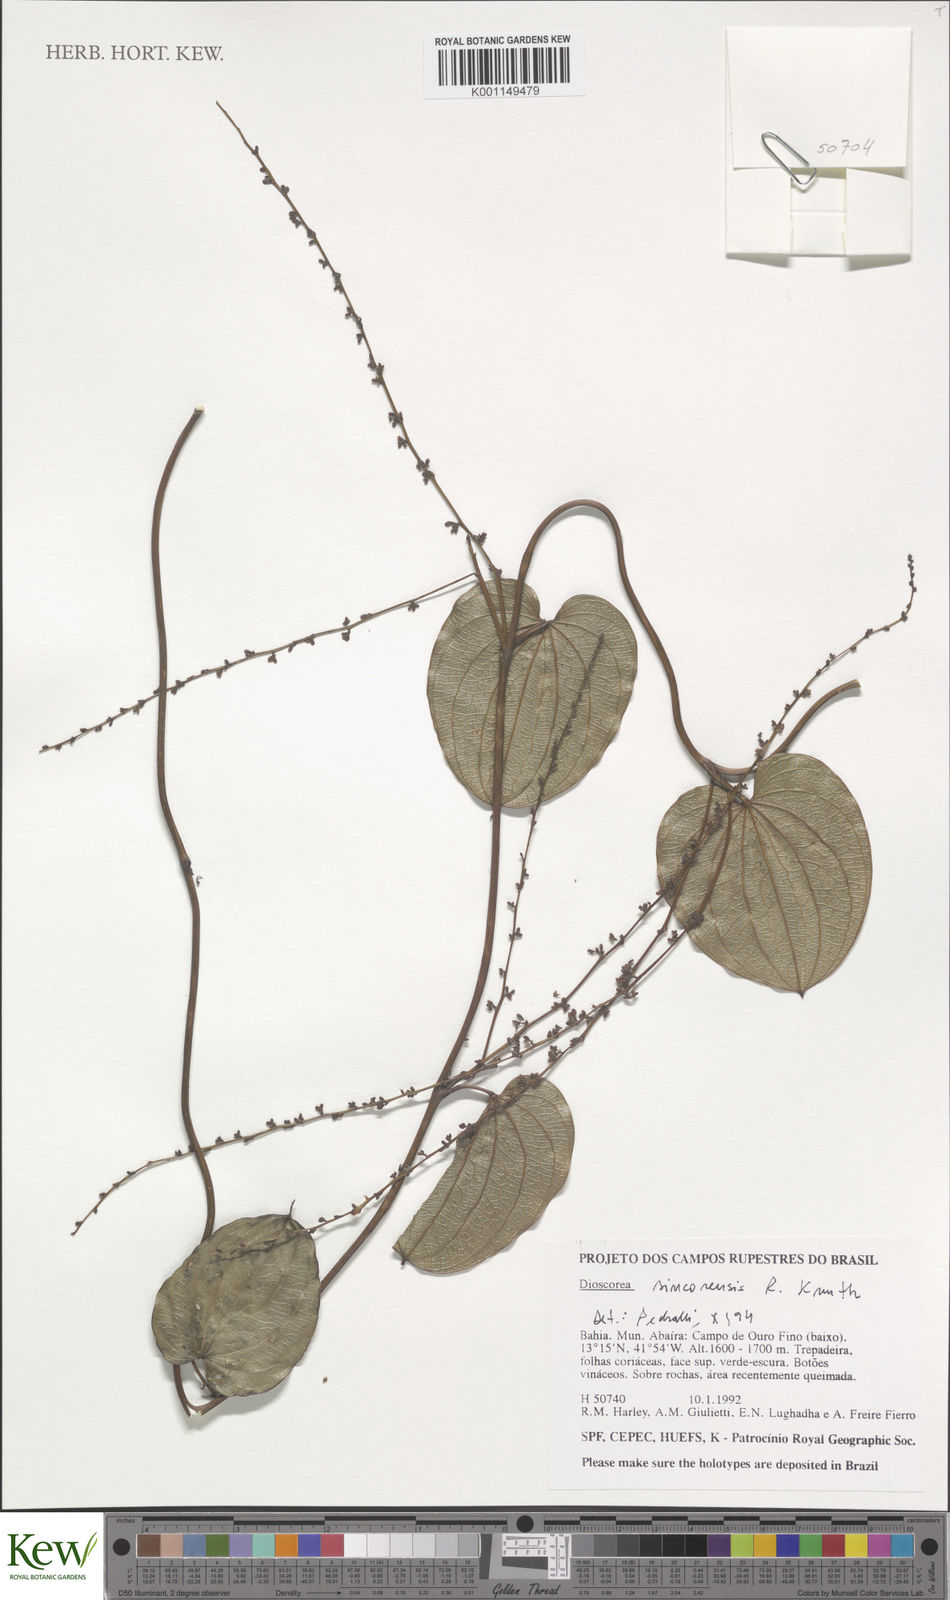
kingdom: Plantae
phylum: Tracheophyta
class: Liliopsida
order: Dioscoreales
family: Dioscoreaceae
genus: Dioscorea
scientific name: Dioscorea sincorensis
